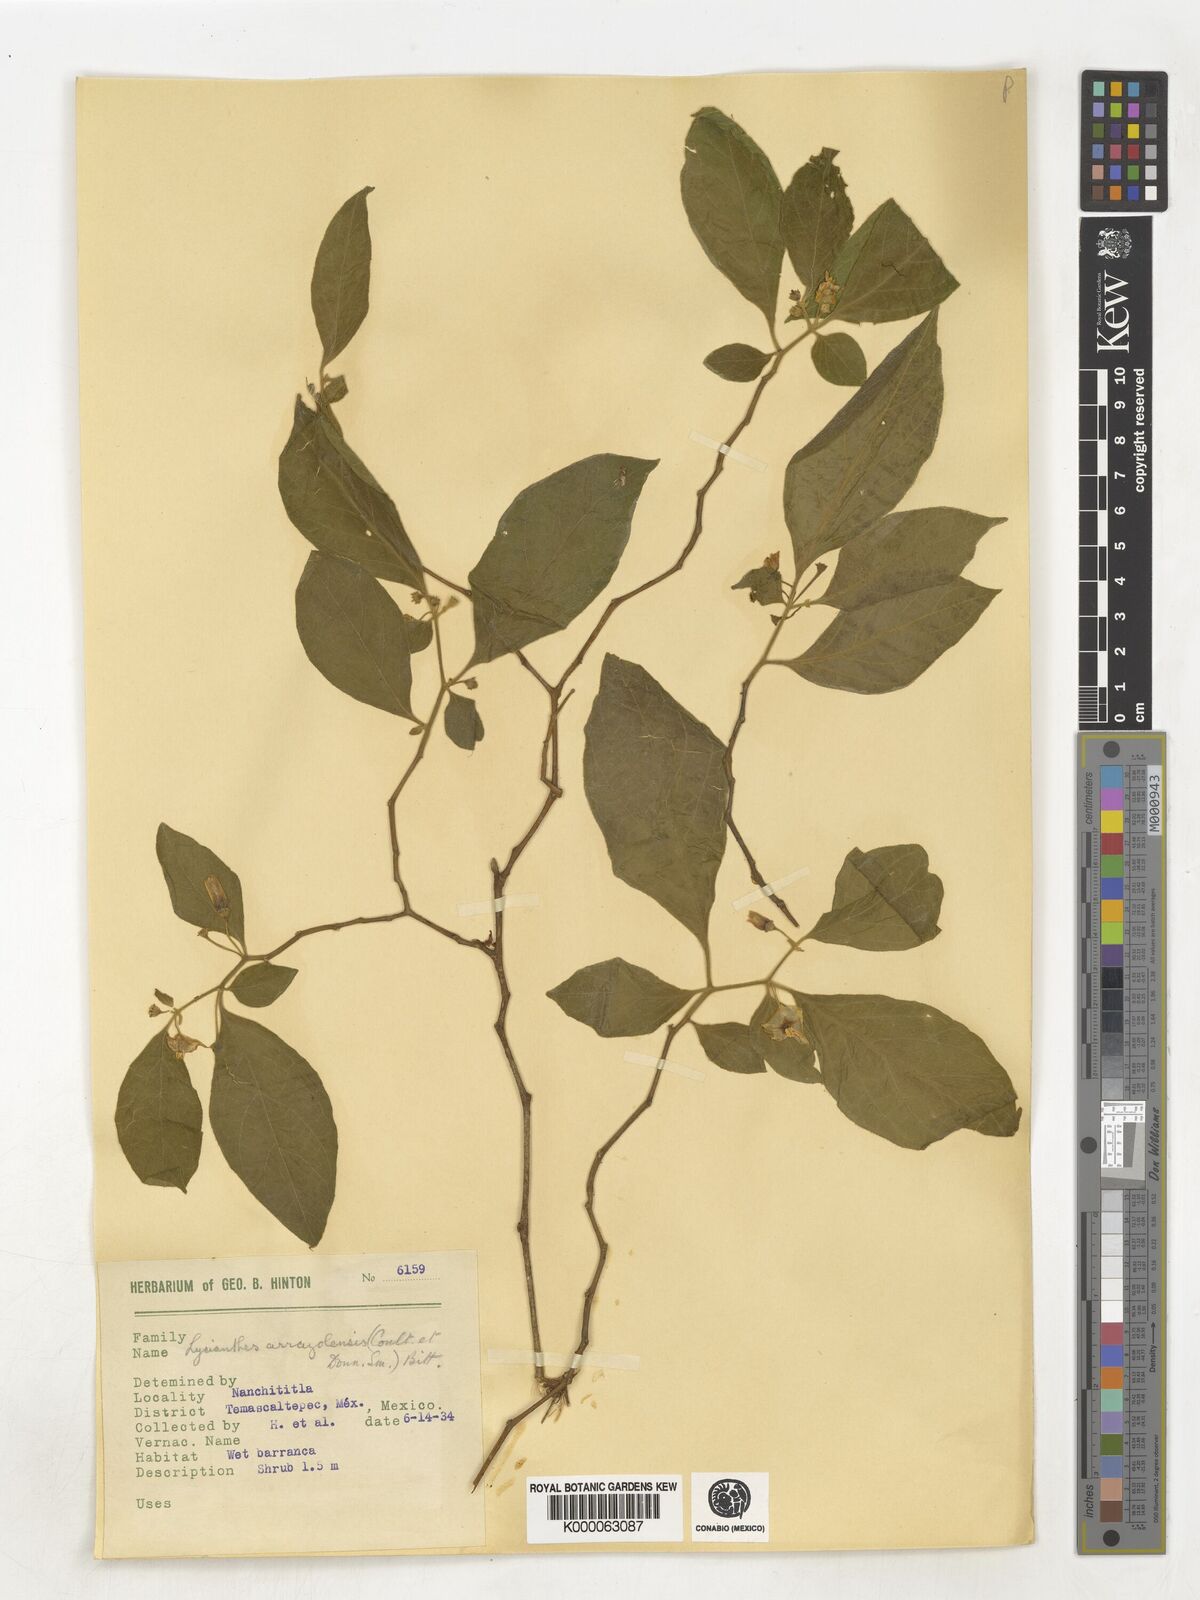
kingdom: Plantae
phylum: Tracheophyta
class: Magnoliopsida
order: Solanales
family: Solanaceae
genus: Lycianthes
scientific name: Lycianthes
